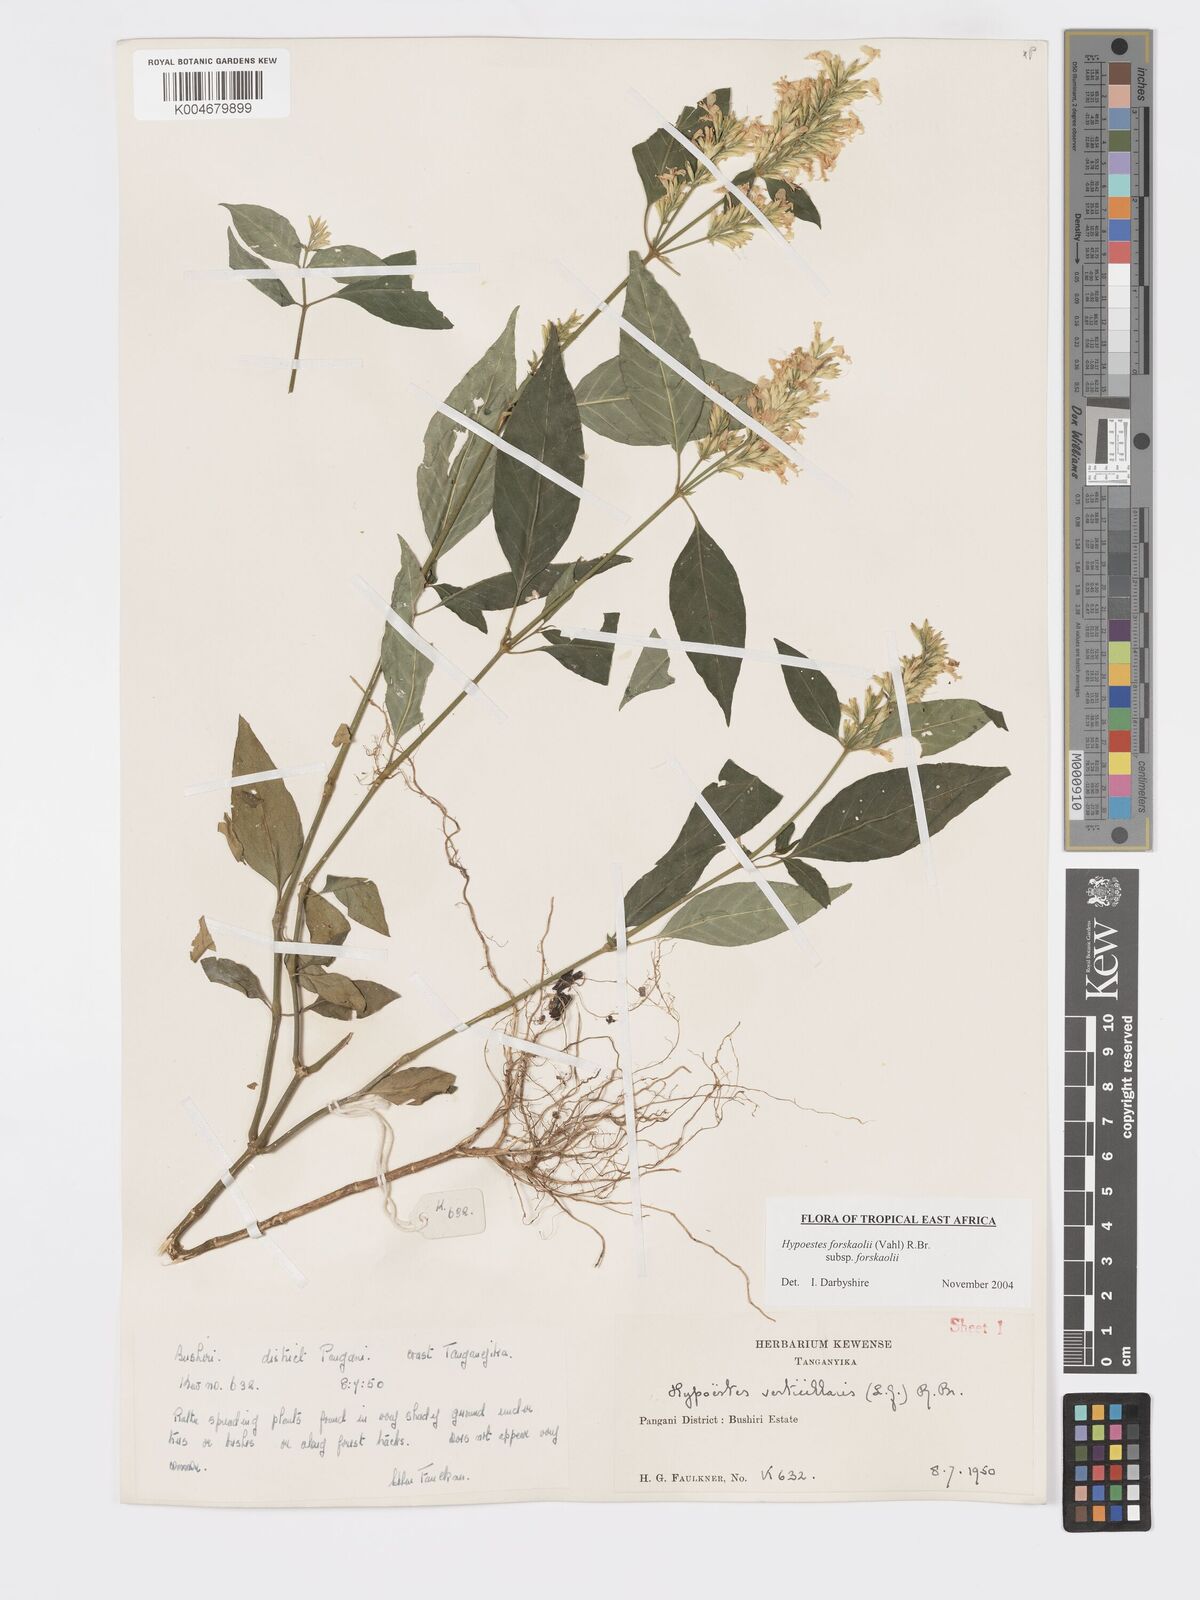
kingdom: Plantae
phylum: Tracheophyta
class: Magnoliopsida
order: Lamiales
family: Acanthaceae
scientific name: Acanthaceae
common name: Acanthaceae
